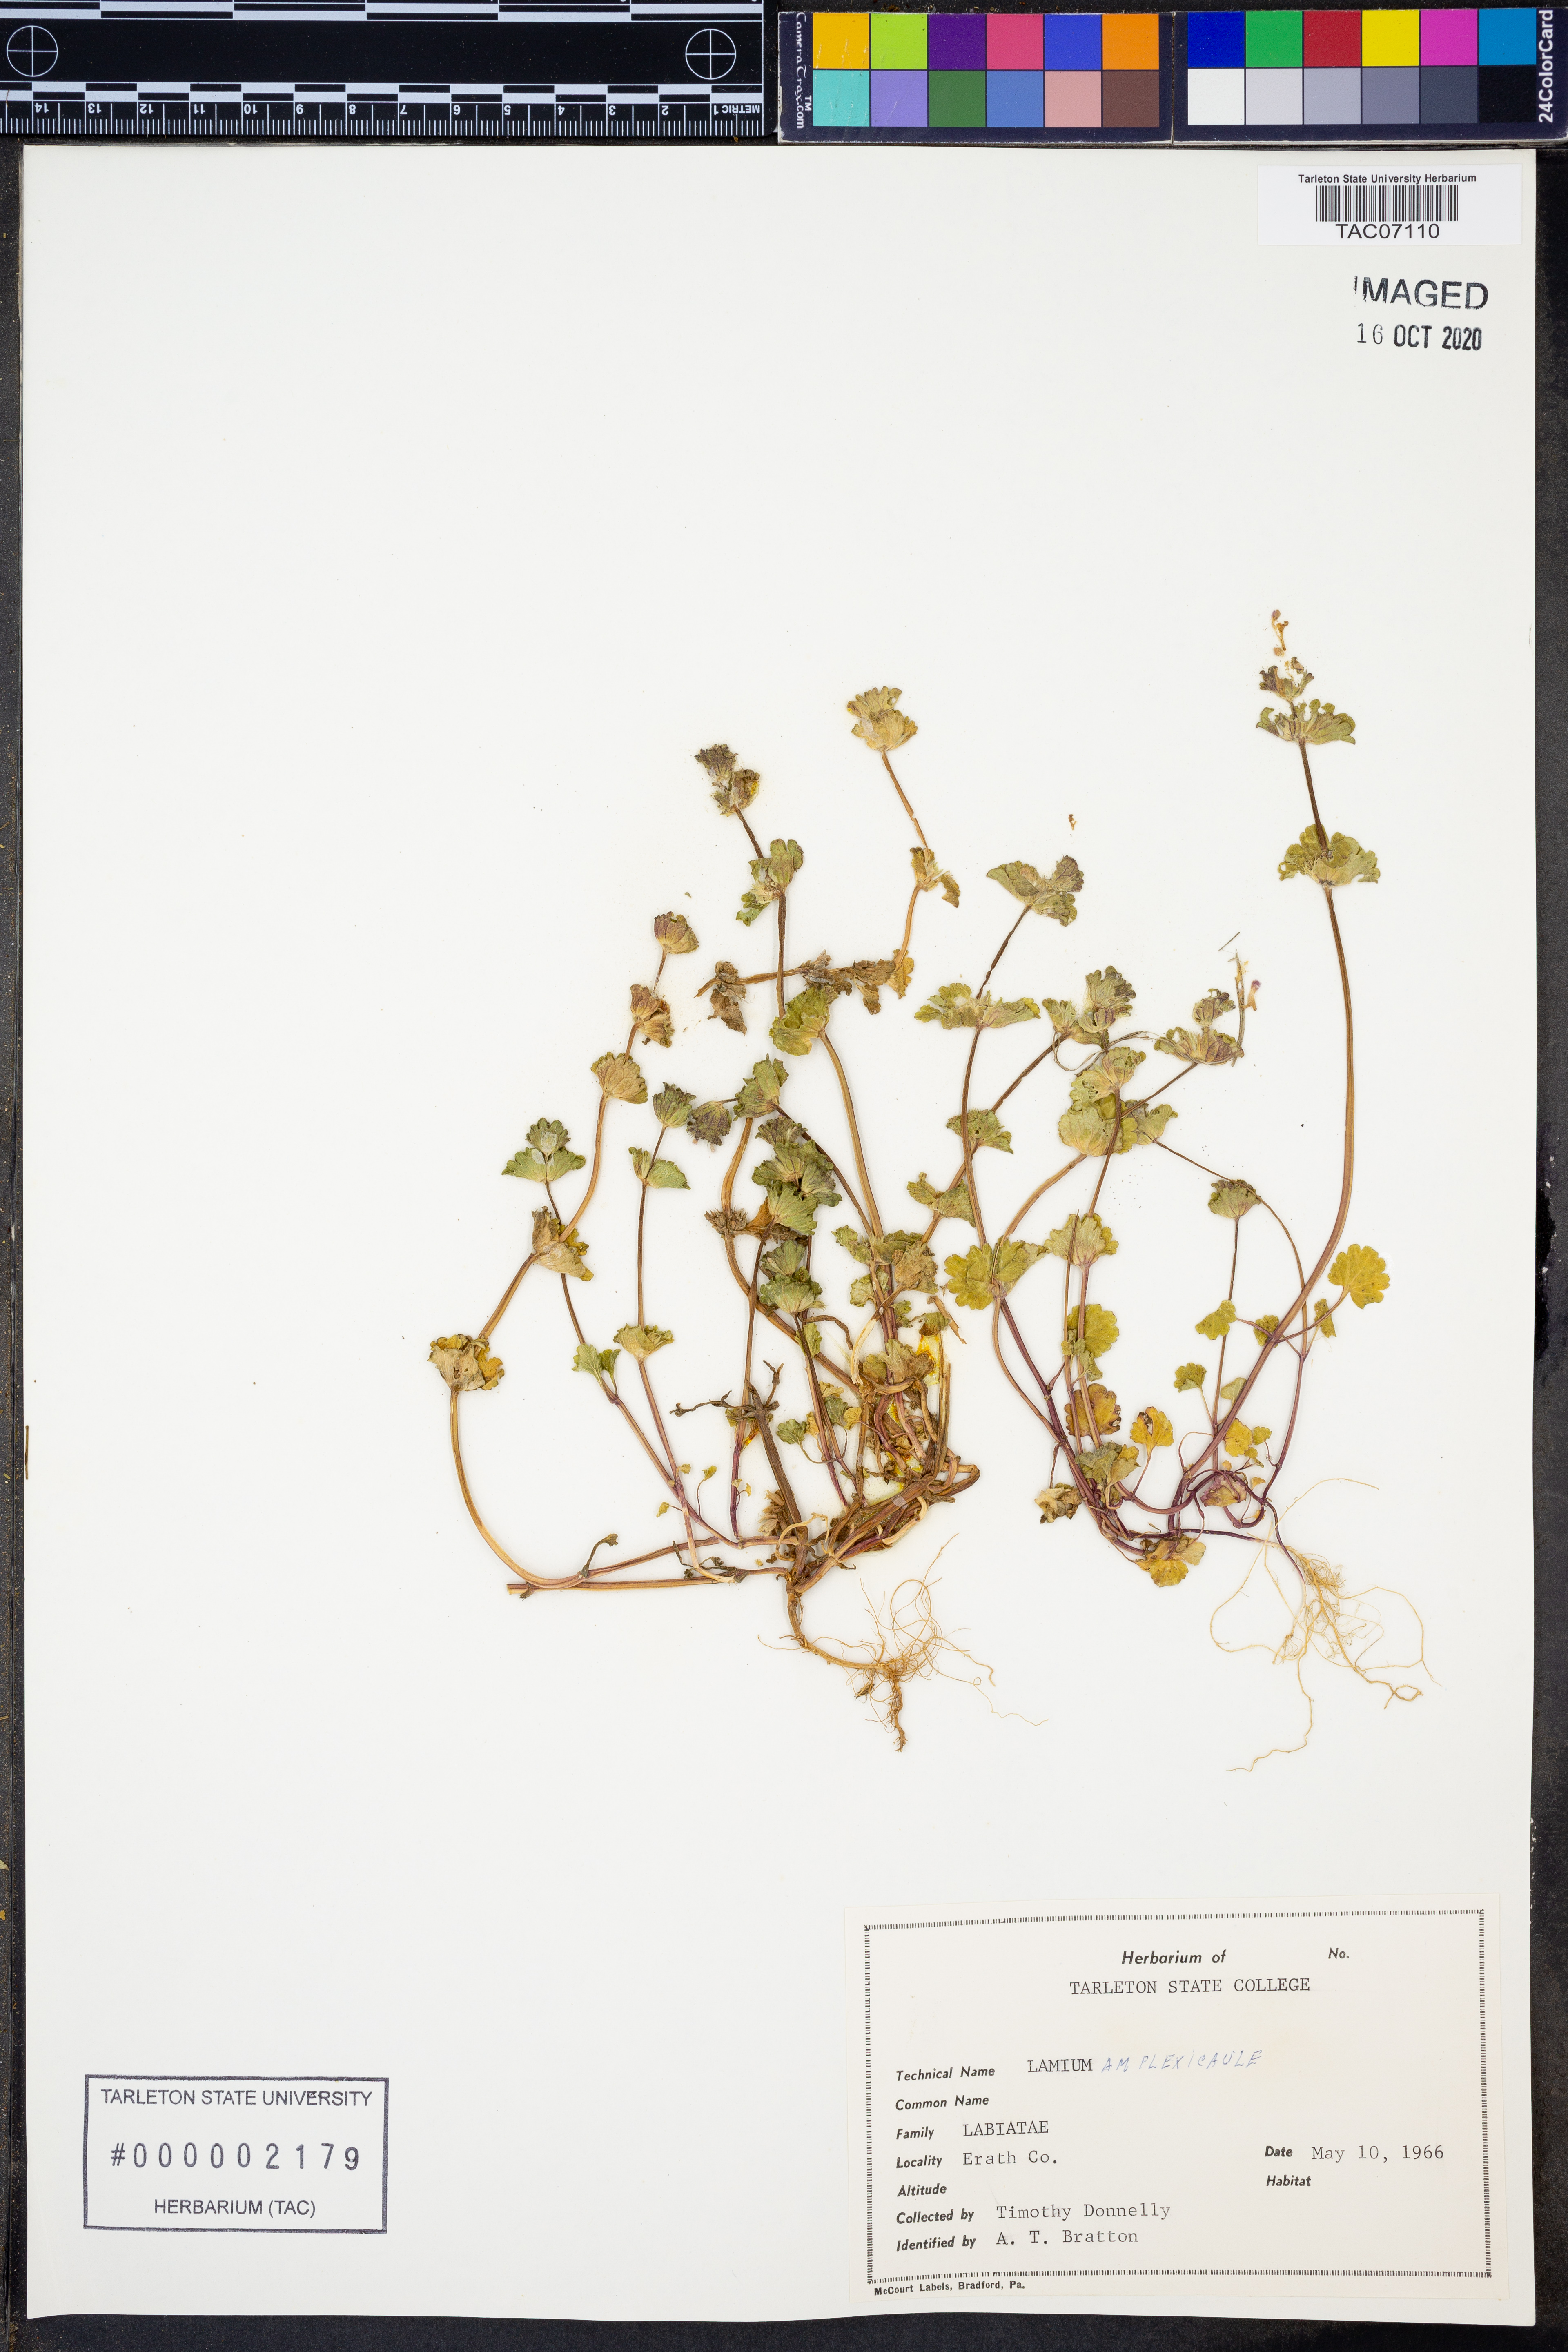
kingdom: Plantae
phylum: Tracheophyta
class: Magnoliopsida
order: Lamiales
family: Lamiaceae
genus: Lamium
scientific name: Lamium amplexicaule
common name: Henbit dead-nettle
